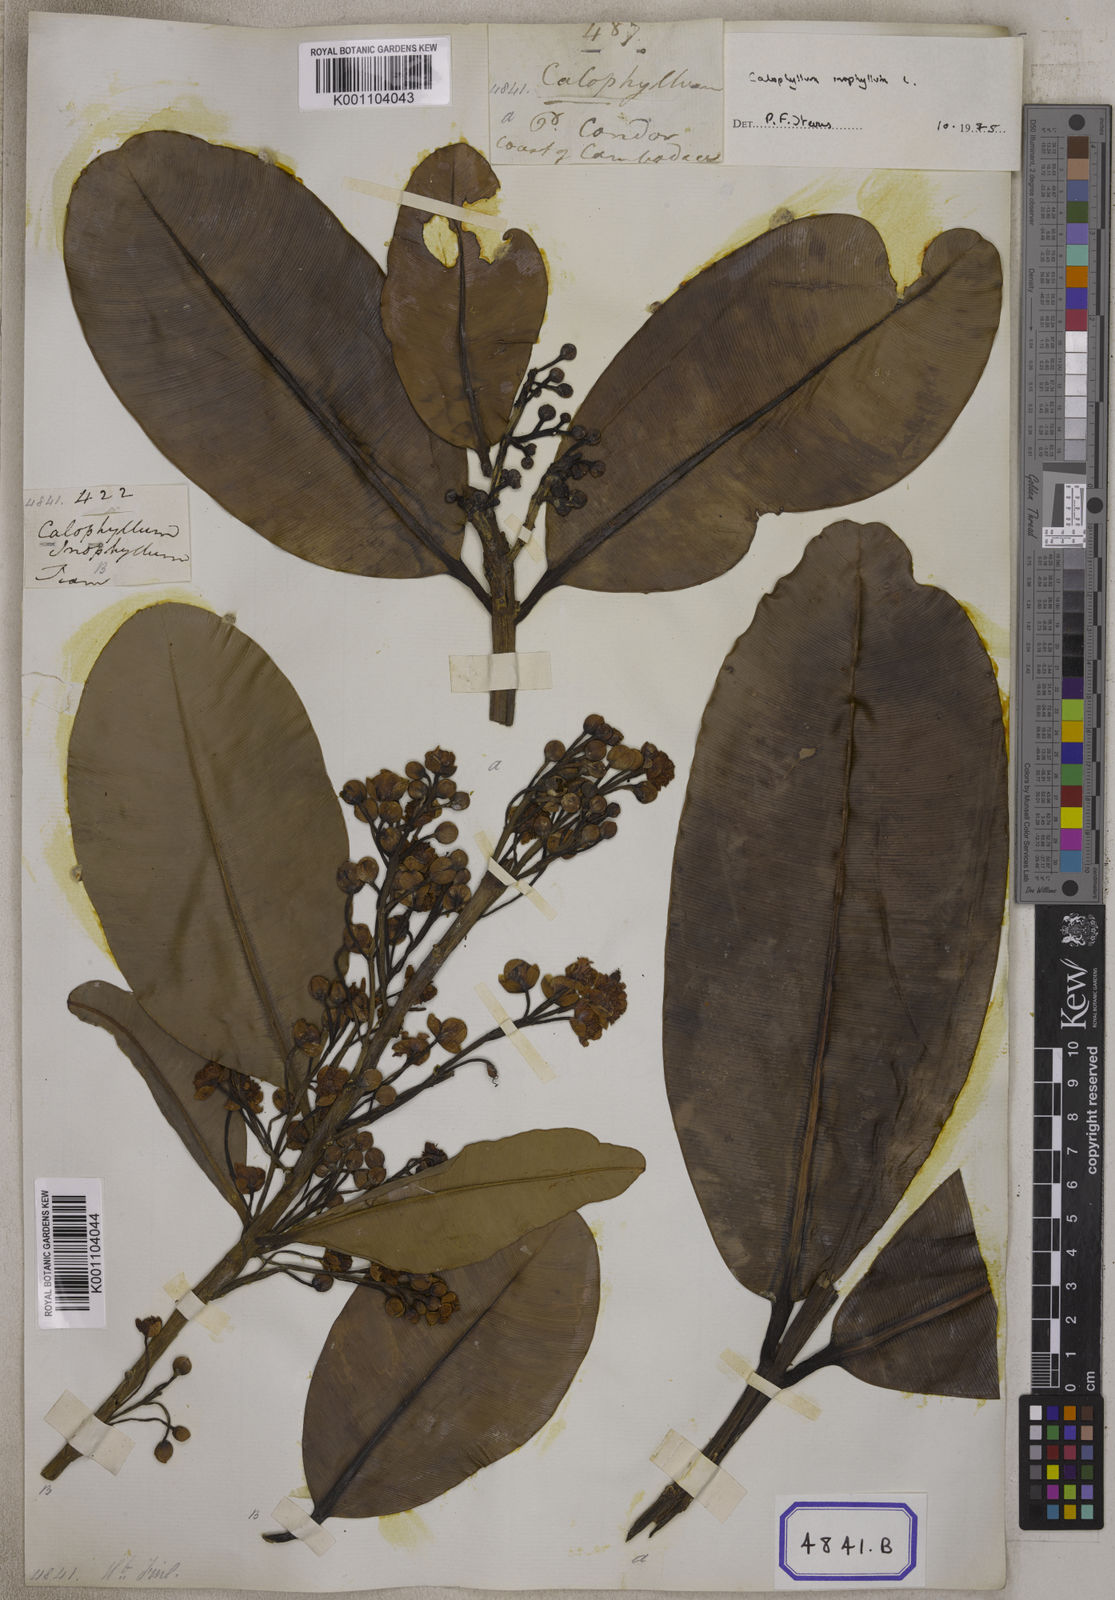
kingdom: Plantae
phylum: Tracheophyta
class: Magnoliopsida
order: Malpighiales
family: Calophyllaceae
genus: Calophyllum
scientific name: Calophyllum inophyllum
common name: Alexandrian laurel
